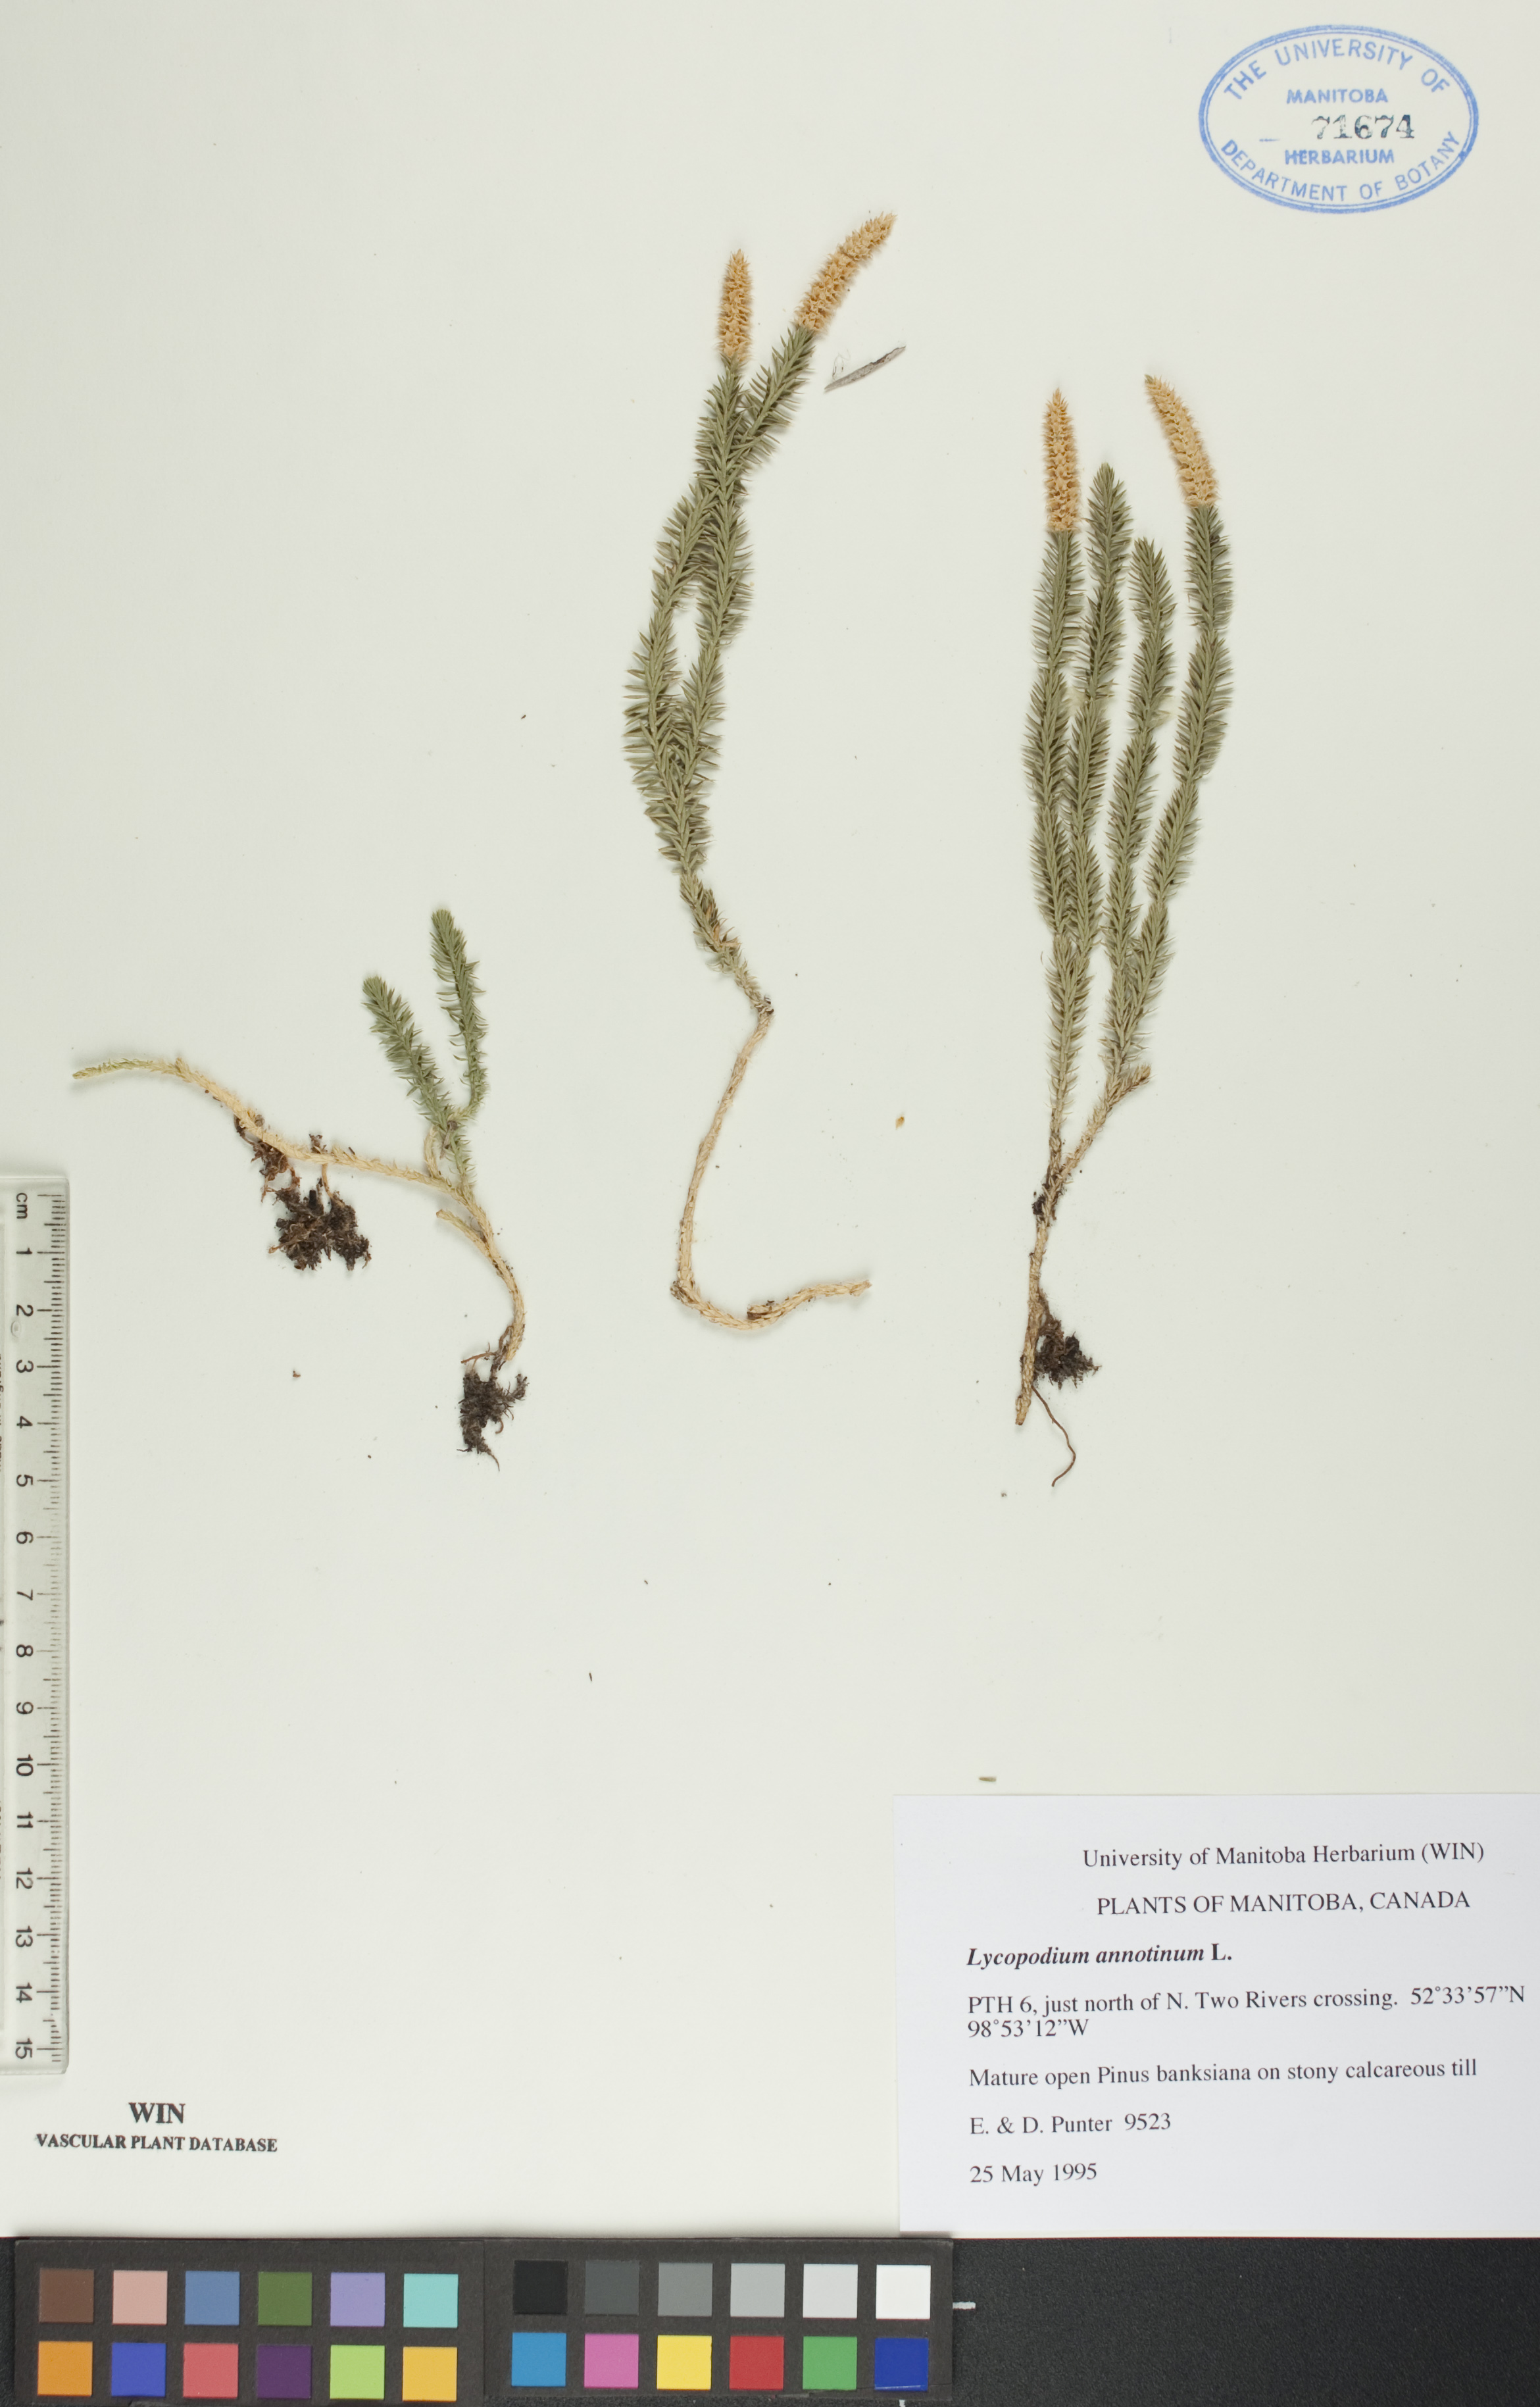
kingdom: Plantae
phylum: Tracheophyta
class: Lycopodiopsida
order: Lycopodiales
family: Lycopodiaceae
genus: Spinulum
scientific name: Spinulum annotinum
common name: Interrupted club-moss
